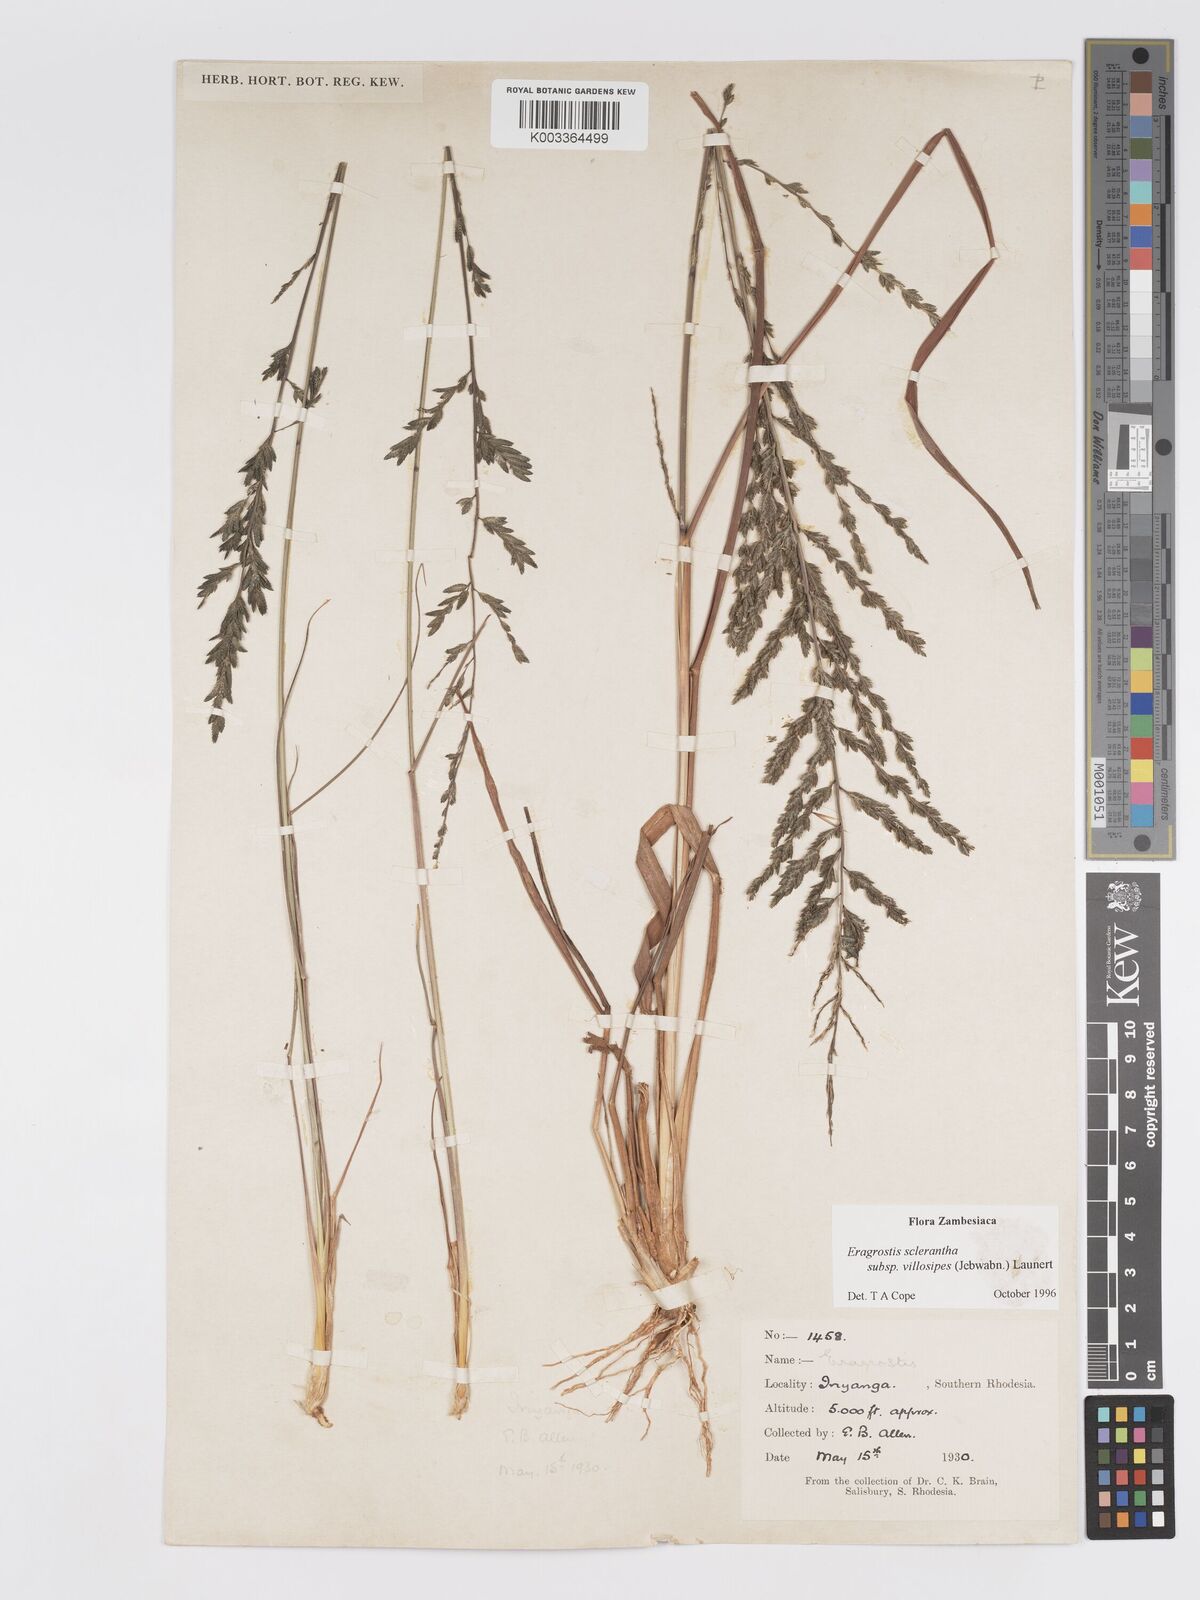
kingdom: Plantae
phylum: Tracheophyta
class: Liliopsida
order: Poales
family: Poaceae
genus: Eragrostis
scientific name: Eragrostis sclerantha
